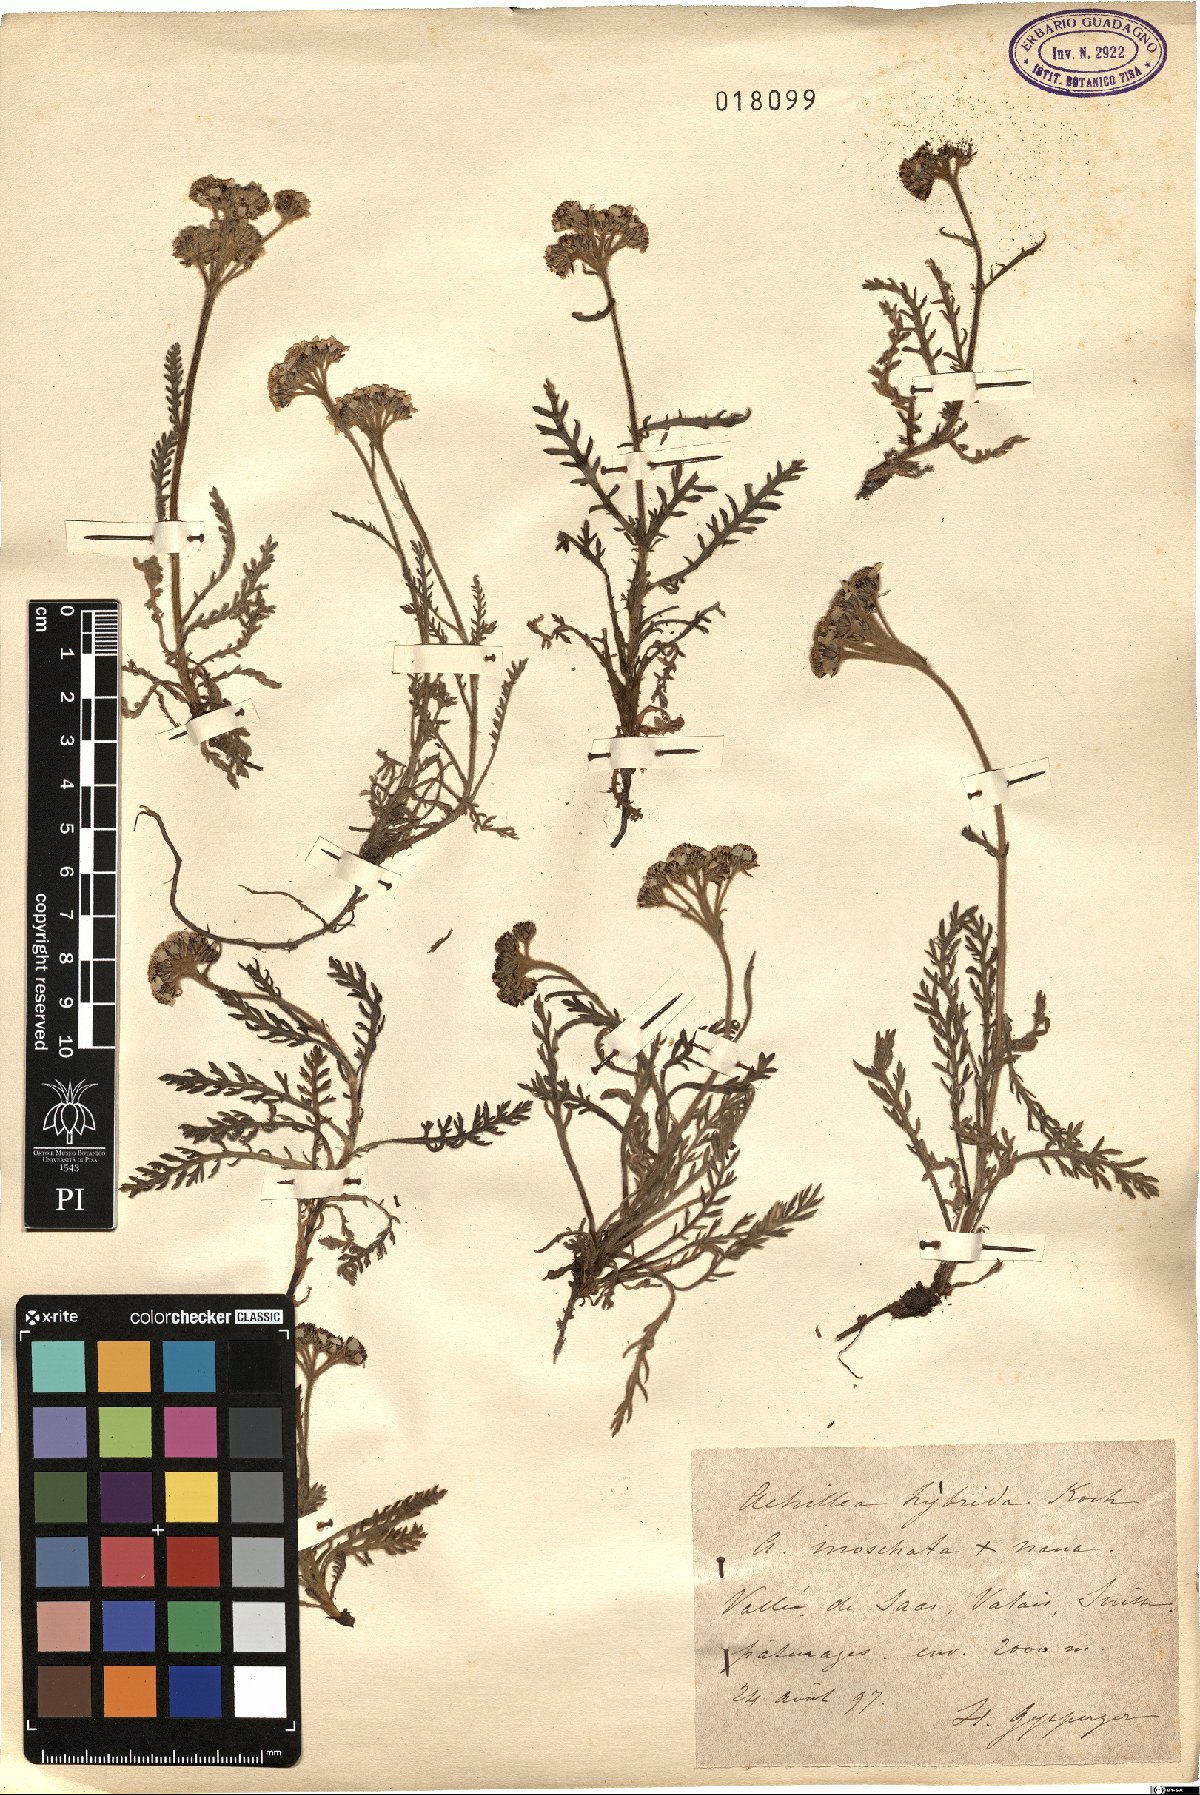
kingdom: Plantae
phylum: Tracheophyta
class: Magnoliopsida
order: Asterales
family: Asteraceae
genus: Achillea
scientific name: Achillea hybrida
